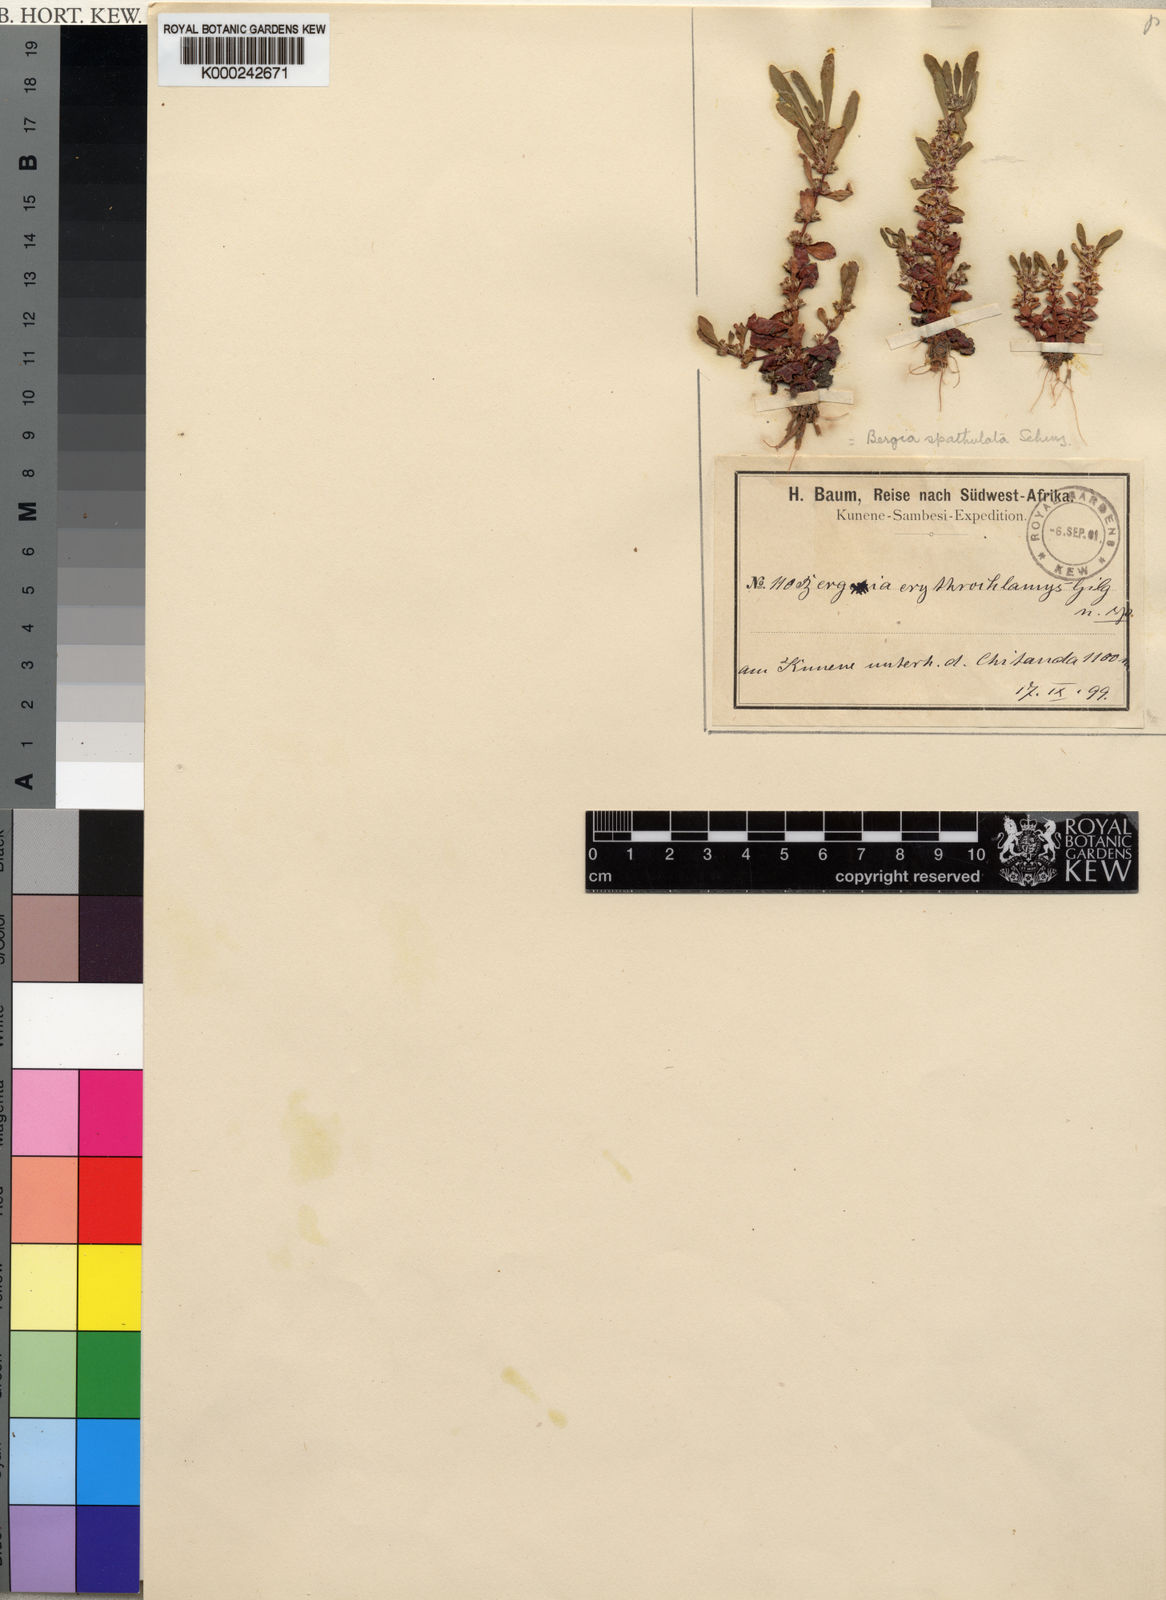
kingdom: Plantae
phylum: Tracheophyta
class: Magnoliopsida
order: Malpighiales
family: Elatinaceae
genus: Bergia
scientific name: Bergia spathulata
